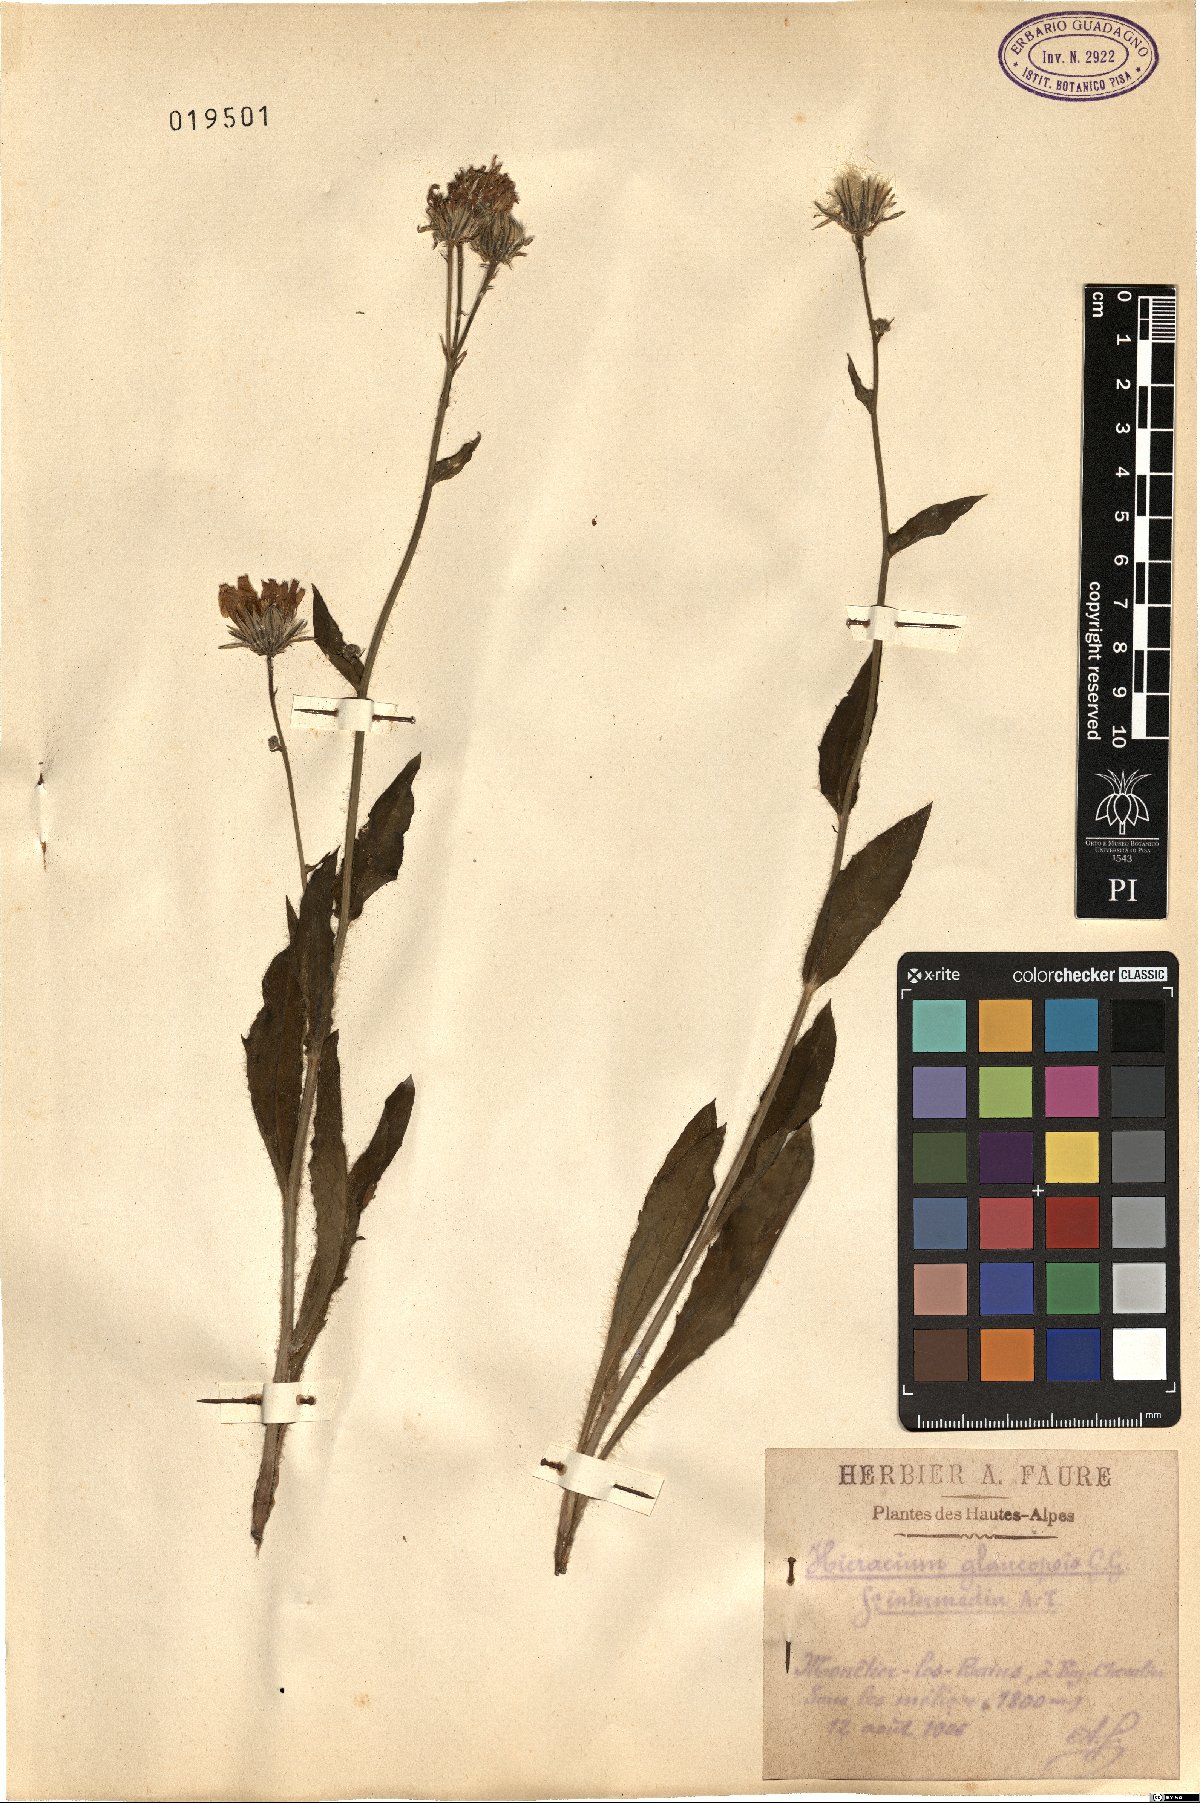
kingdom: Plantae
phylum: Tracheophyta
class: Magnoliopsida
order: Asterales
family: Asteraceae
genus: Hieracium
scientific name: Hieracium glaucopsis
